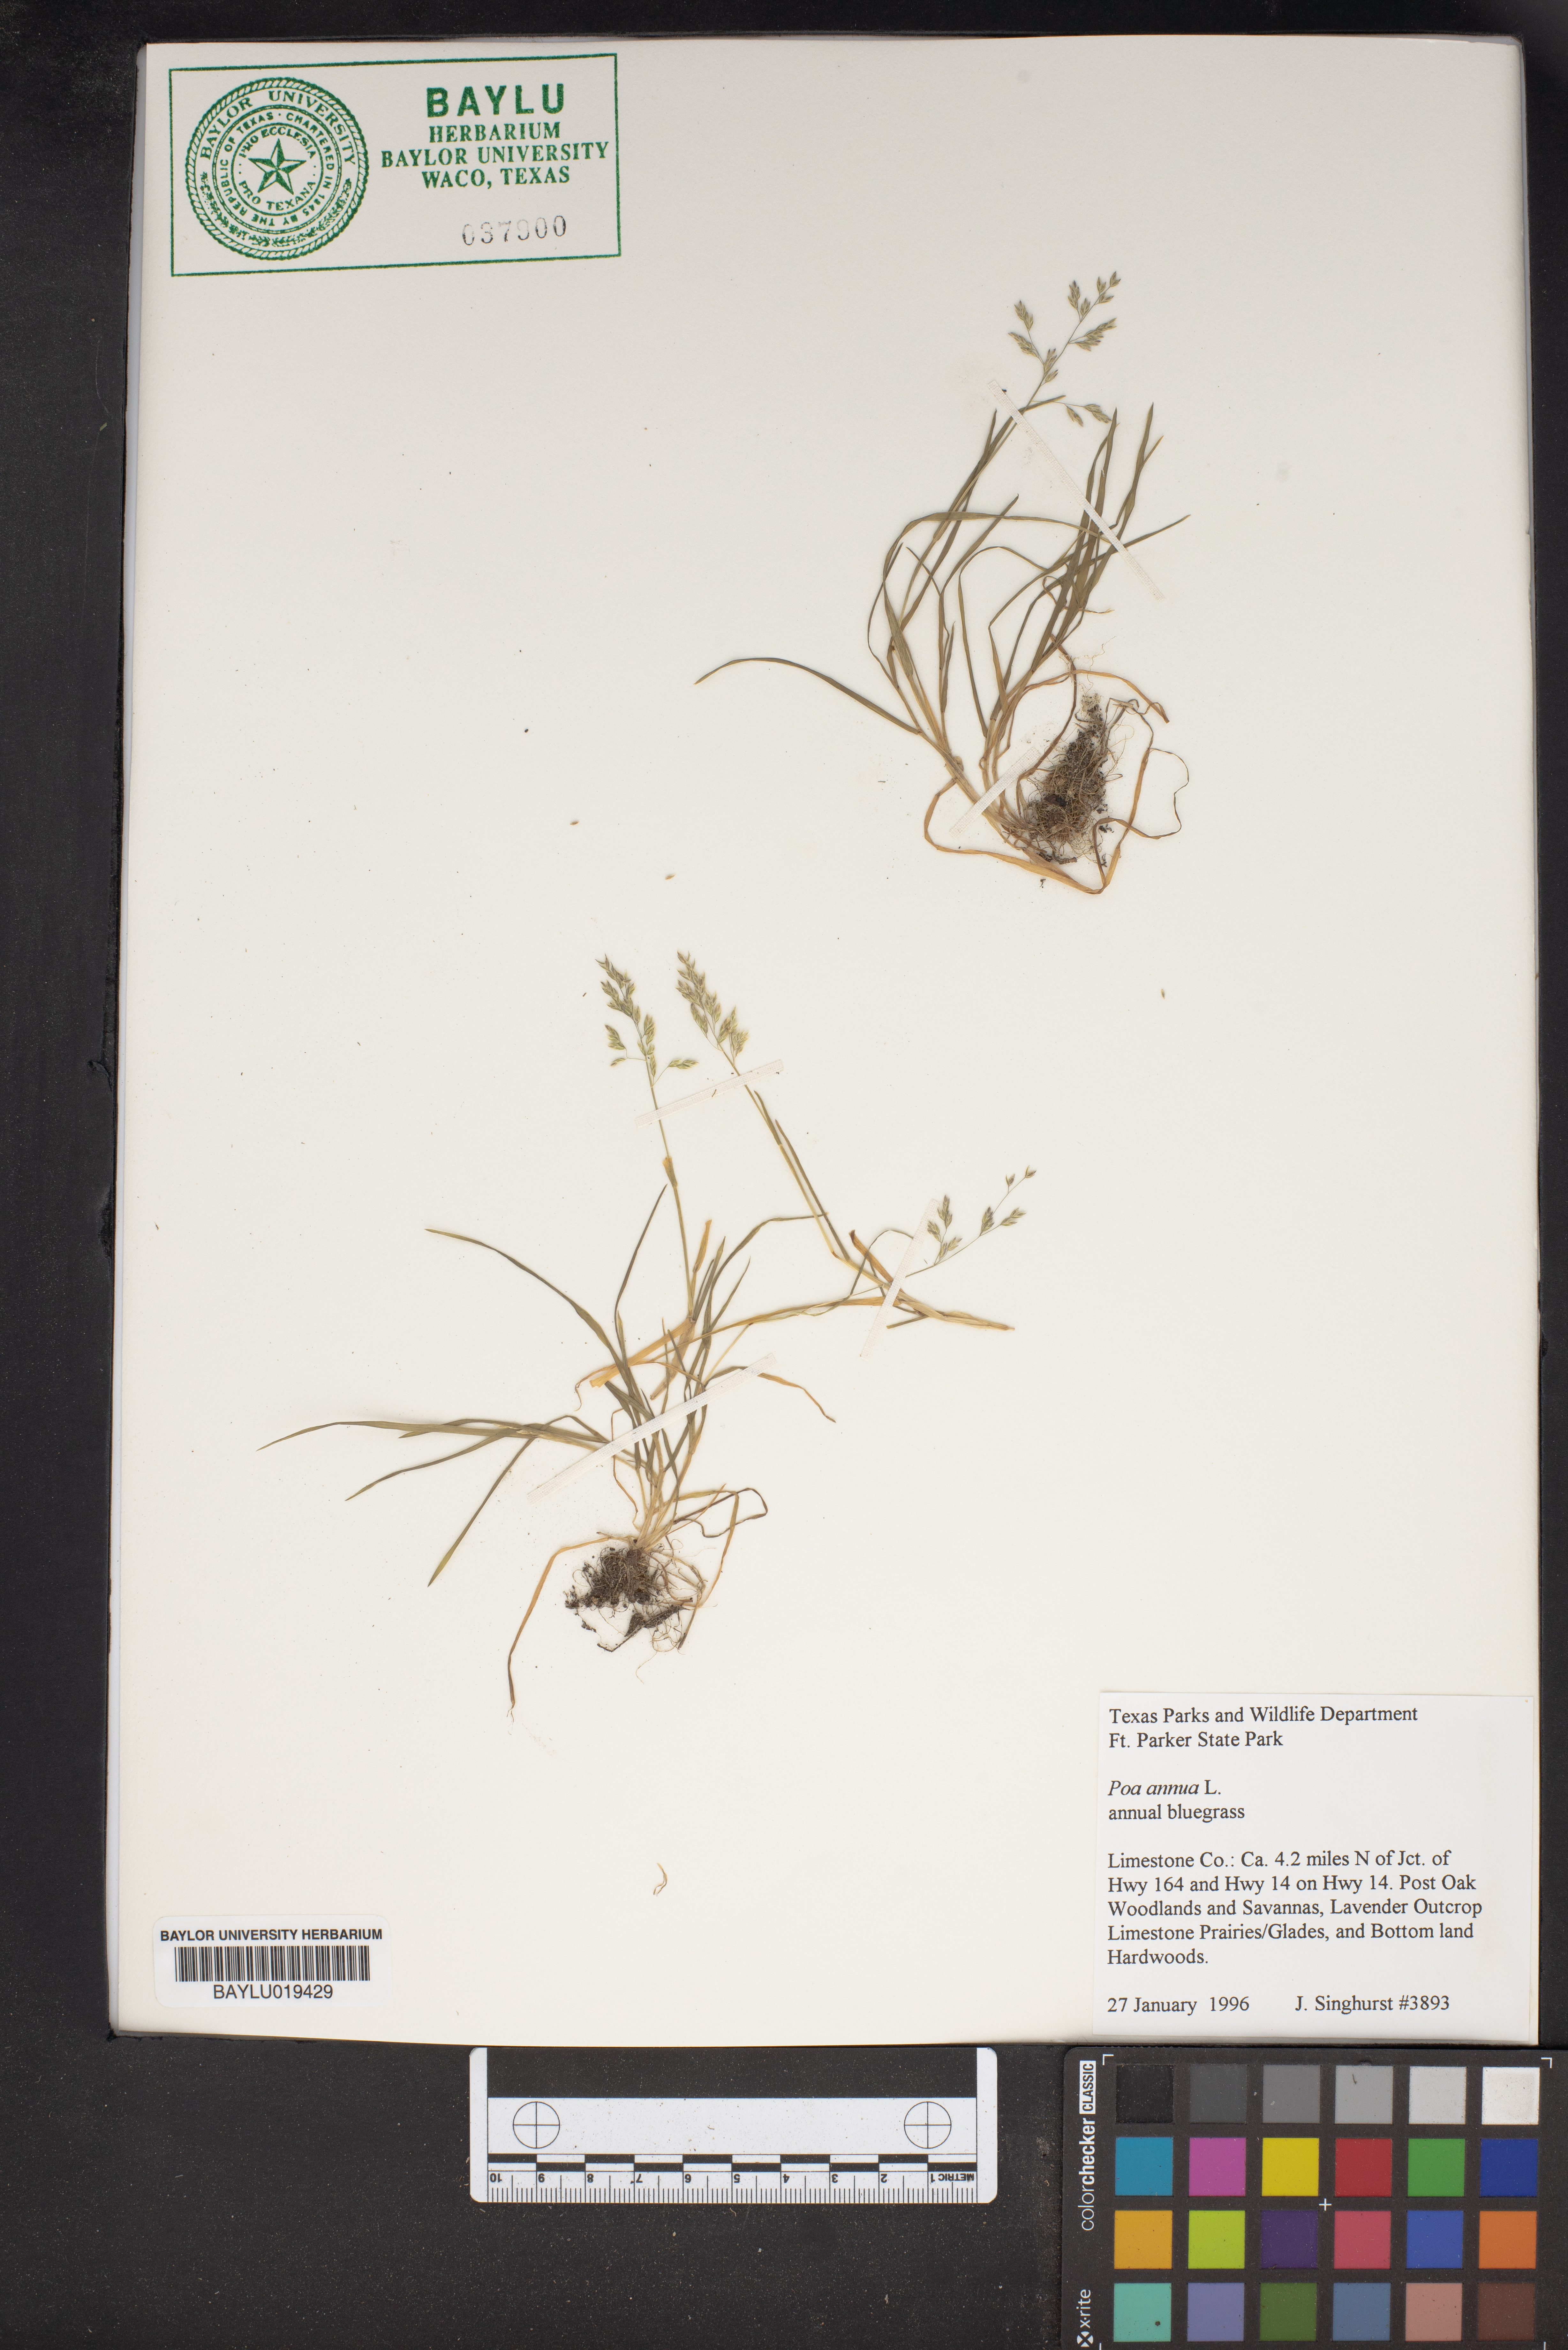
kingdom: Plantae
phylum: Tracheophyta
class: Liliopsida
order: Poales
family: Poaceae
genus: Poa
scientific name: Poa annua
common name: Annual bluegrass
